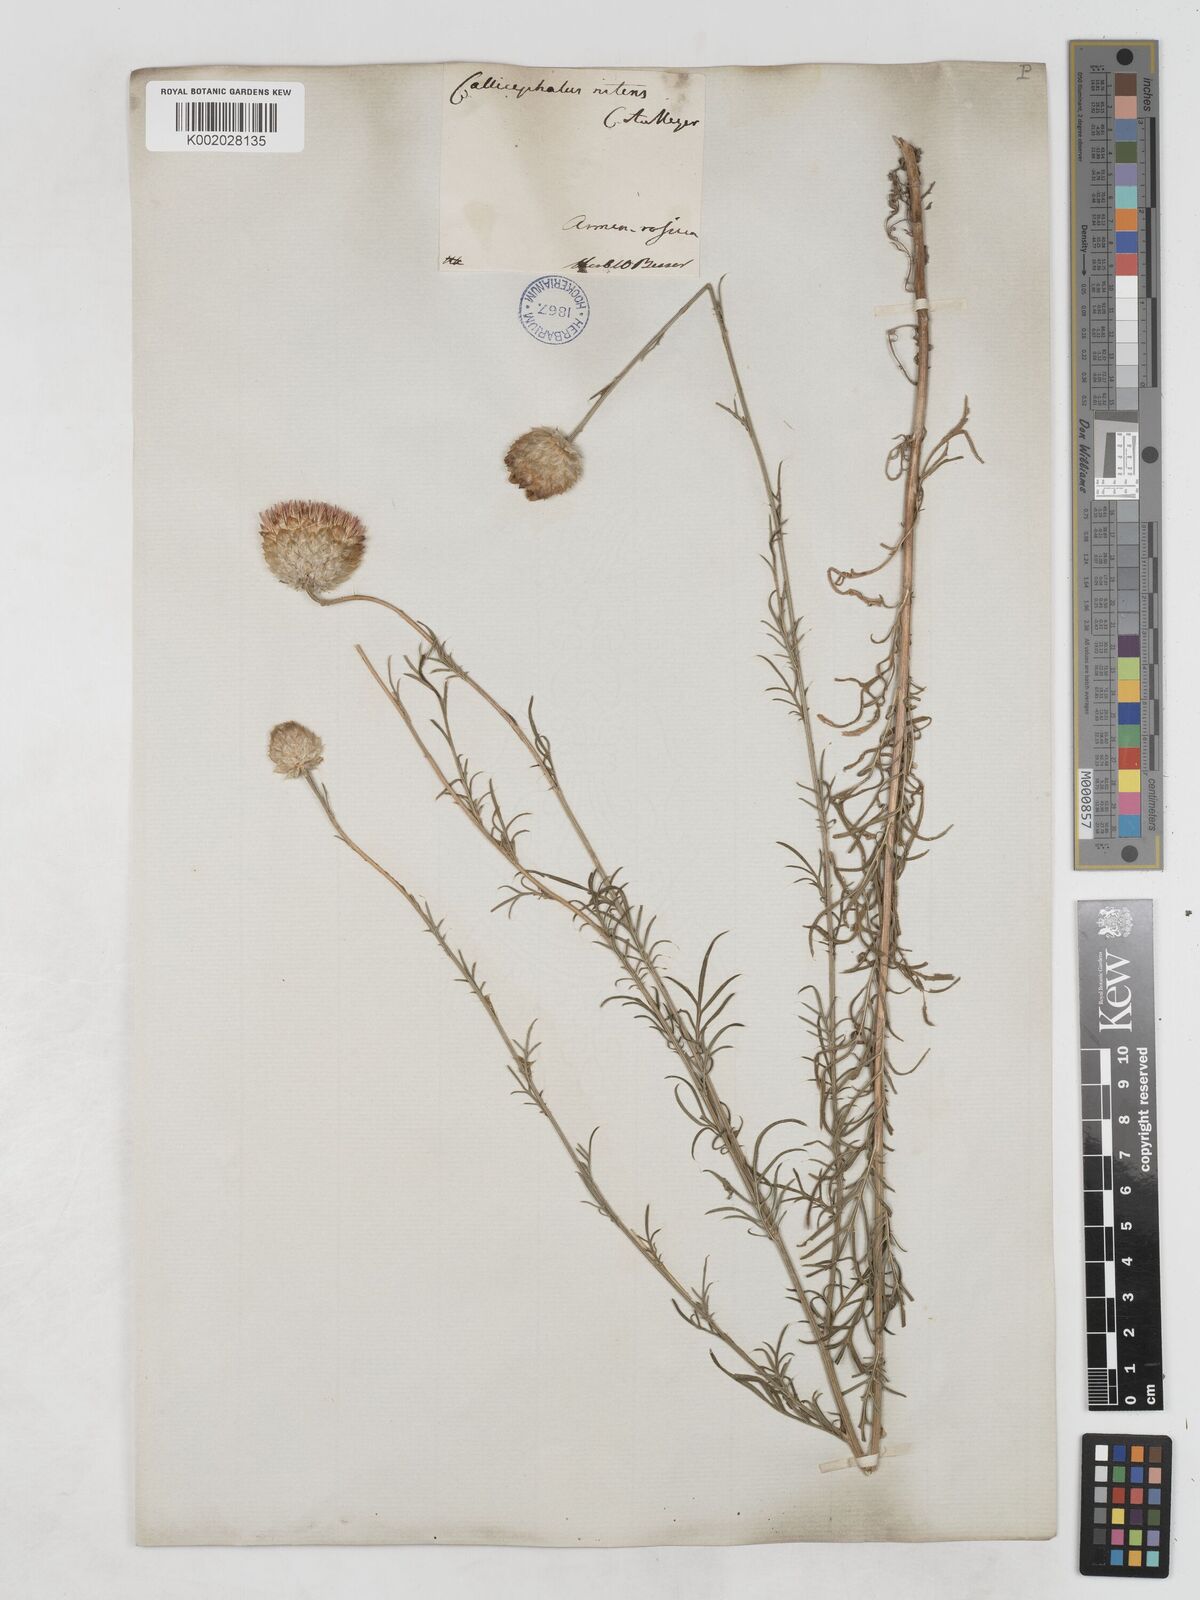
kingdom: Plantae
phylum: Tracheophyta
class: Magnoliopsida
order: Asterales
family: Asteraceae
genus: Callicephalus
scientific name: Callicephalus nitens
